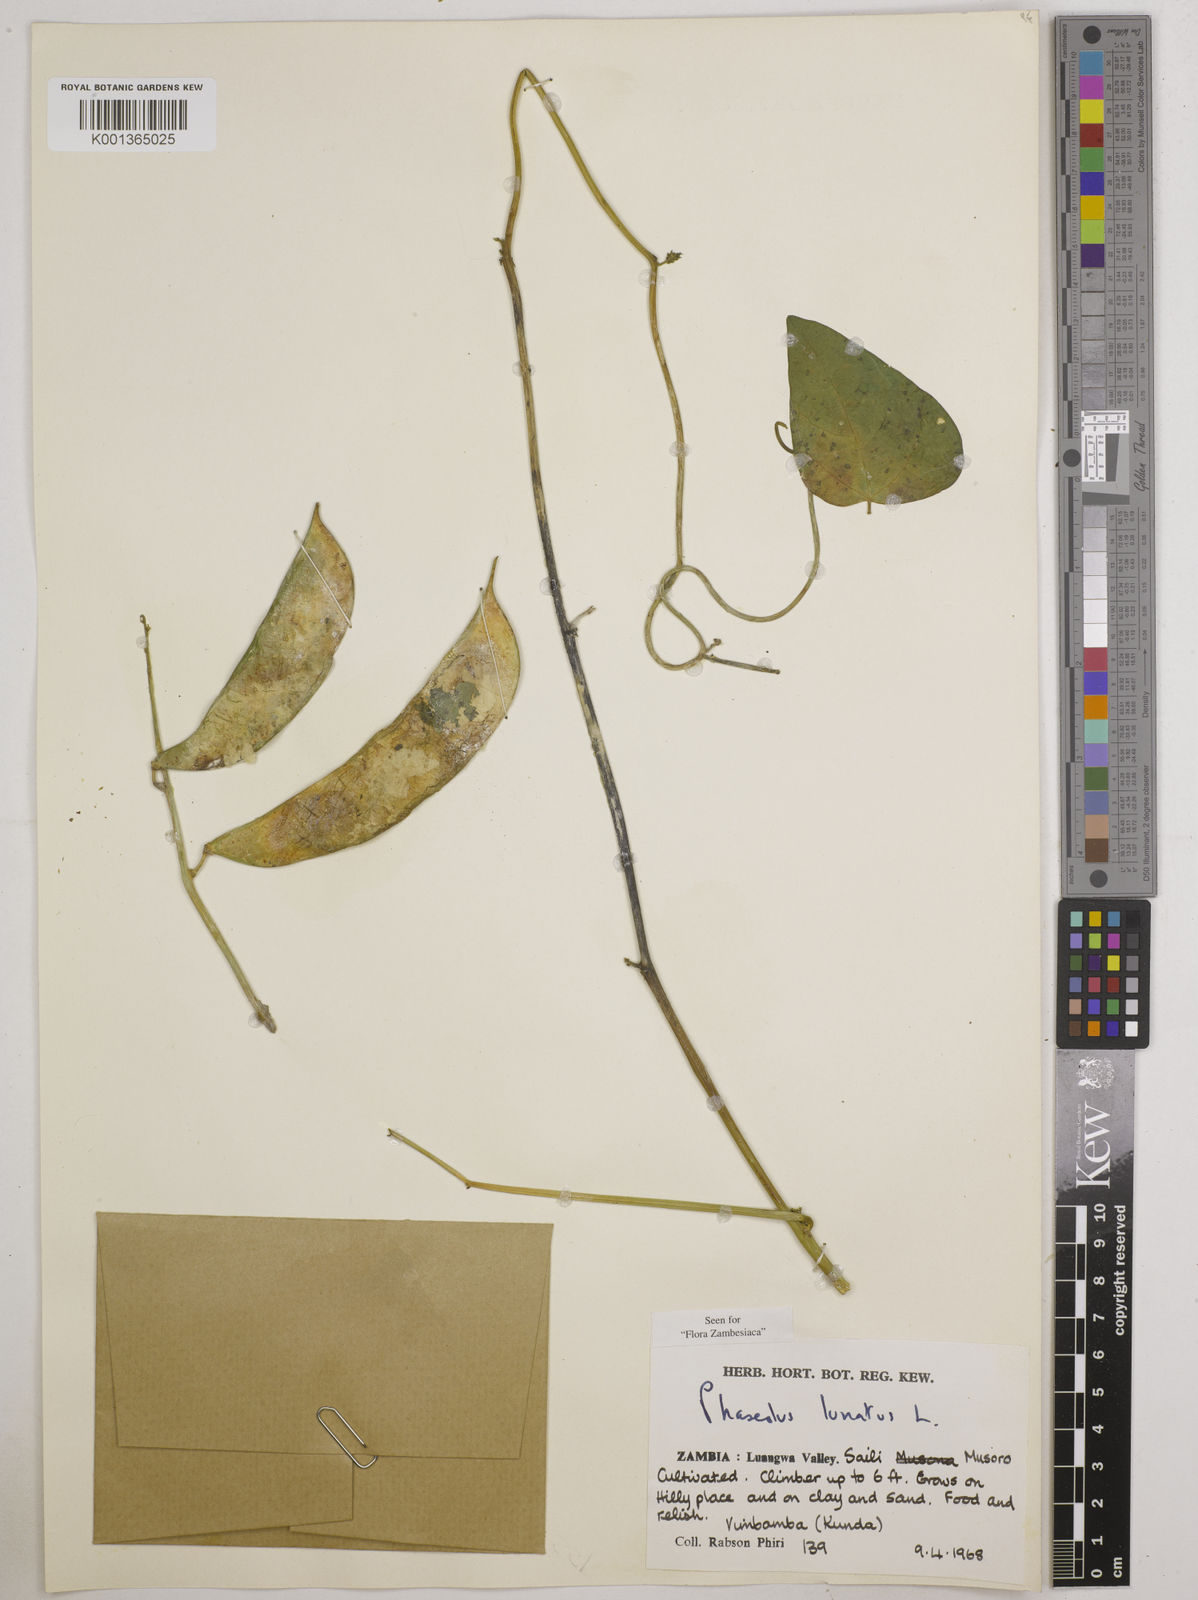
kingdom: Plantae
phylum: Tracheophyta
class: Magnoliopsida
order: Fabales
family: Fabaceae
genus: Phaseolus
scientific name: Phaseolus lunatus
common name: Sieva bean
